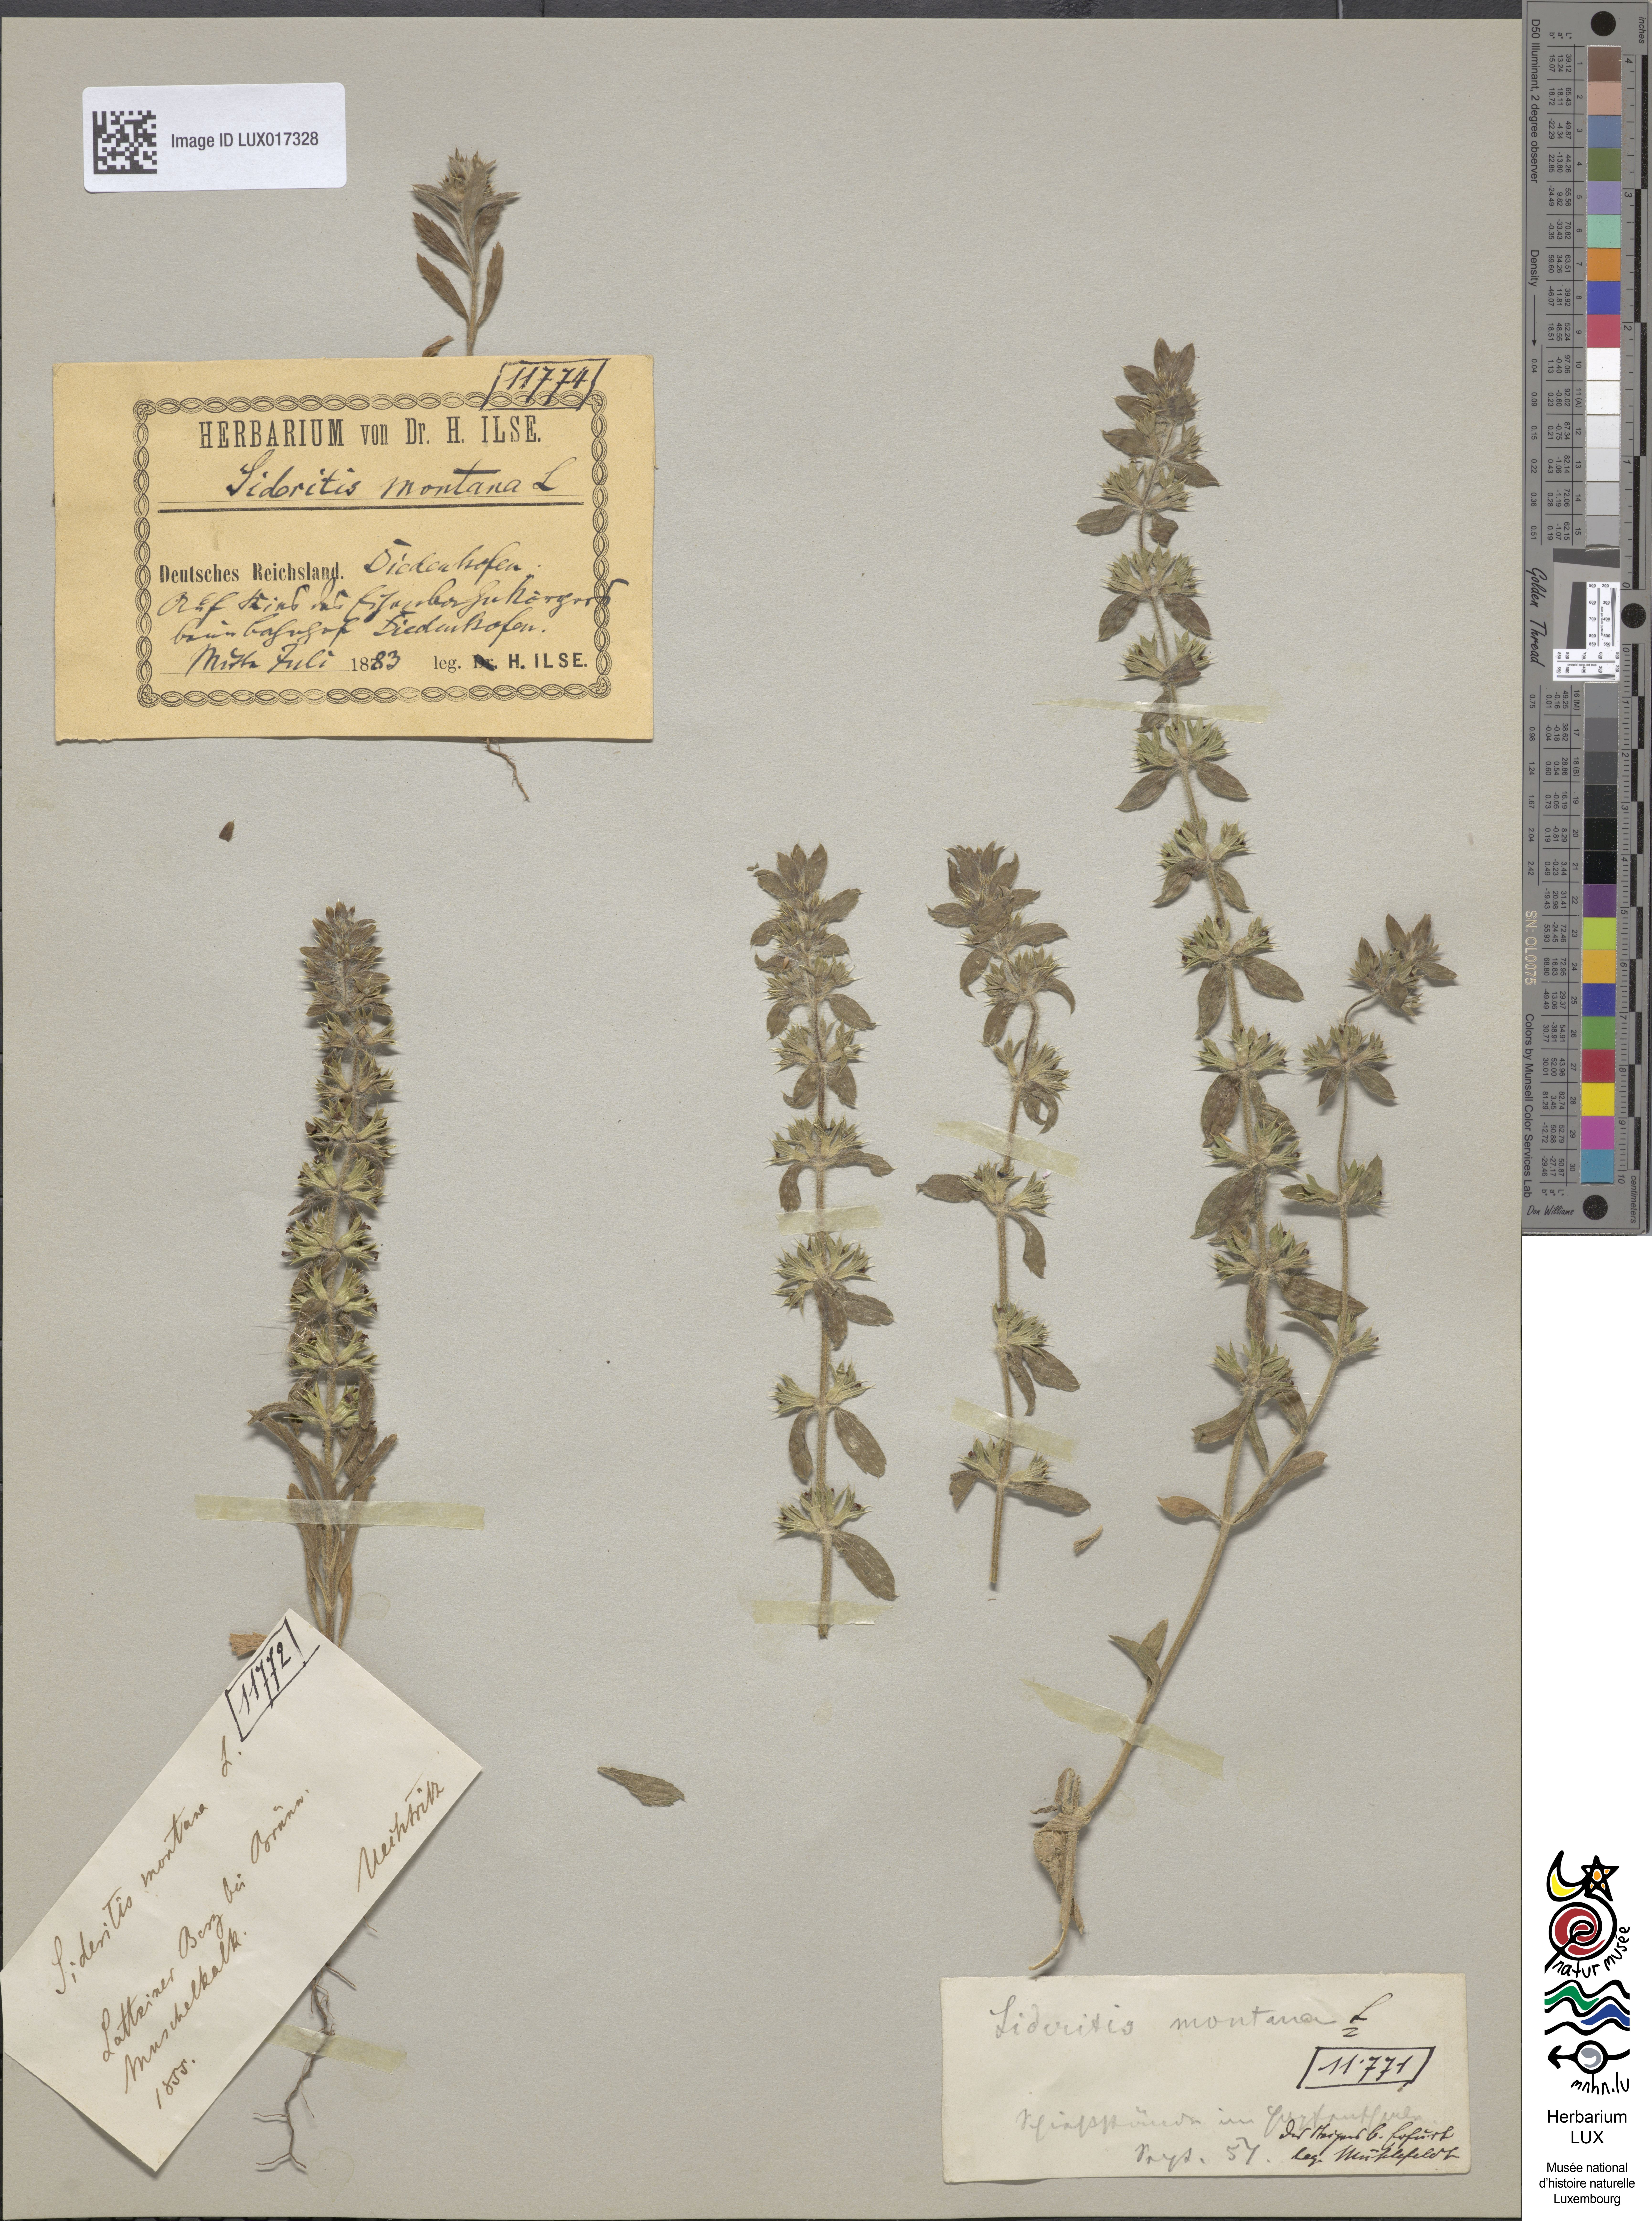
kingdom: Plantae
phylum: Tracheophyta
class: Magnoliopsida
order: Lamiales
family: Lamiaceae
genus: Sideritis
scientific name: Sideritis montana
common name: Mountain ironwort
